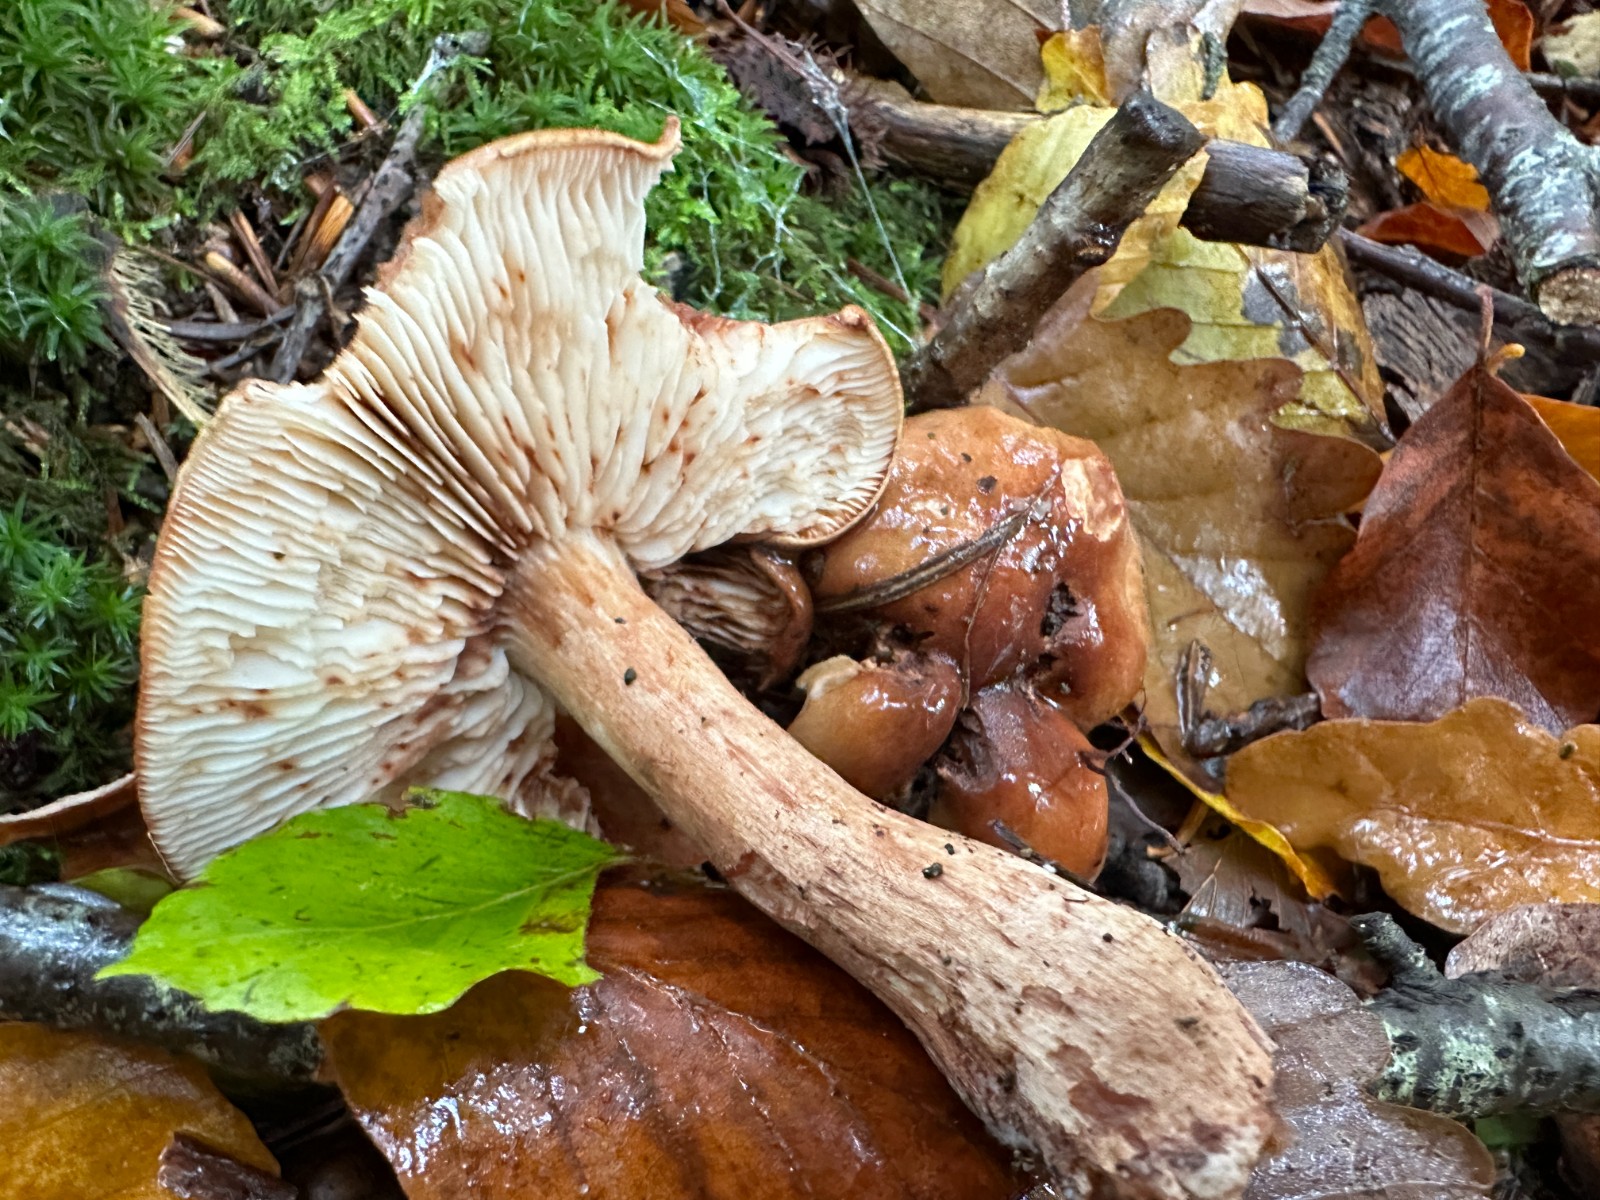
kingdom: Fungi
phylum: Basidiomycota
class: Agaricomycetes
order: Agaricales
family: Tricholomataceae
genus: Tricholoma
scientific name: Tricholoma ustale
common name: sveden ridderhat
